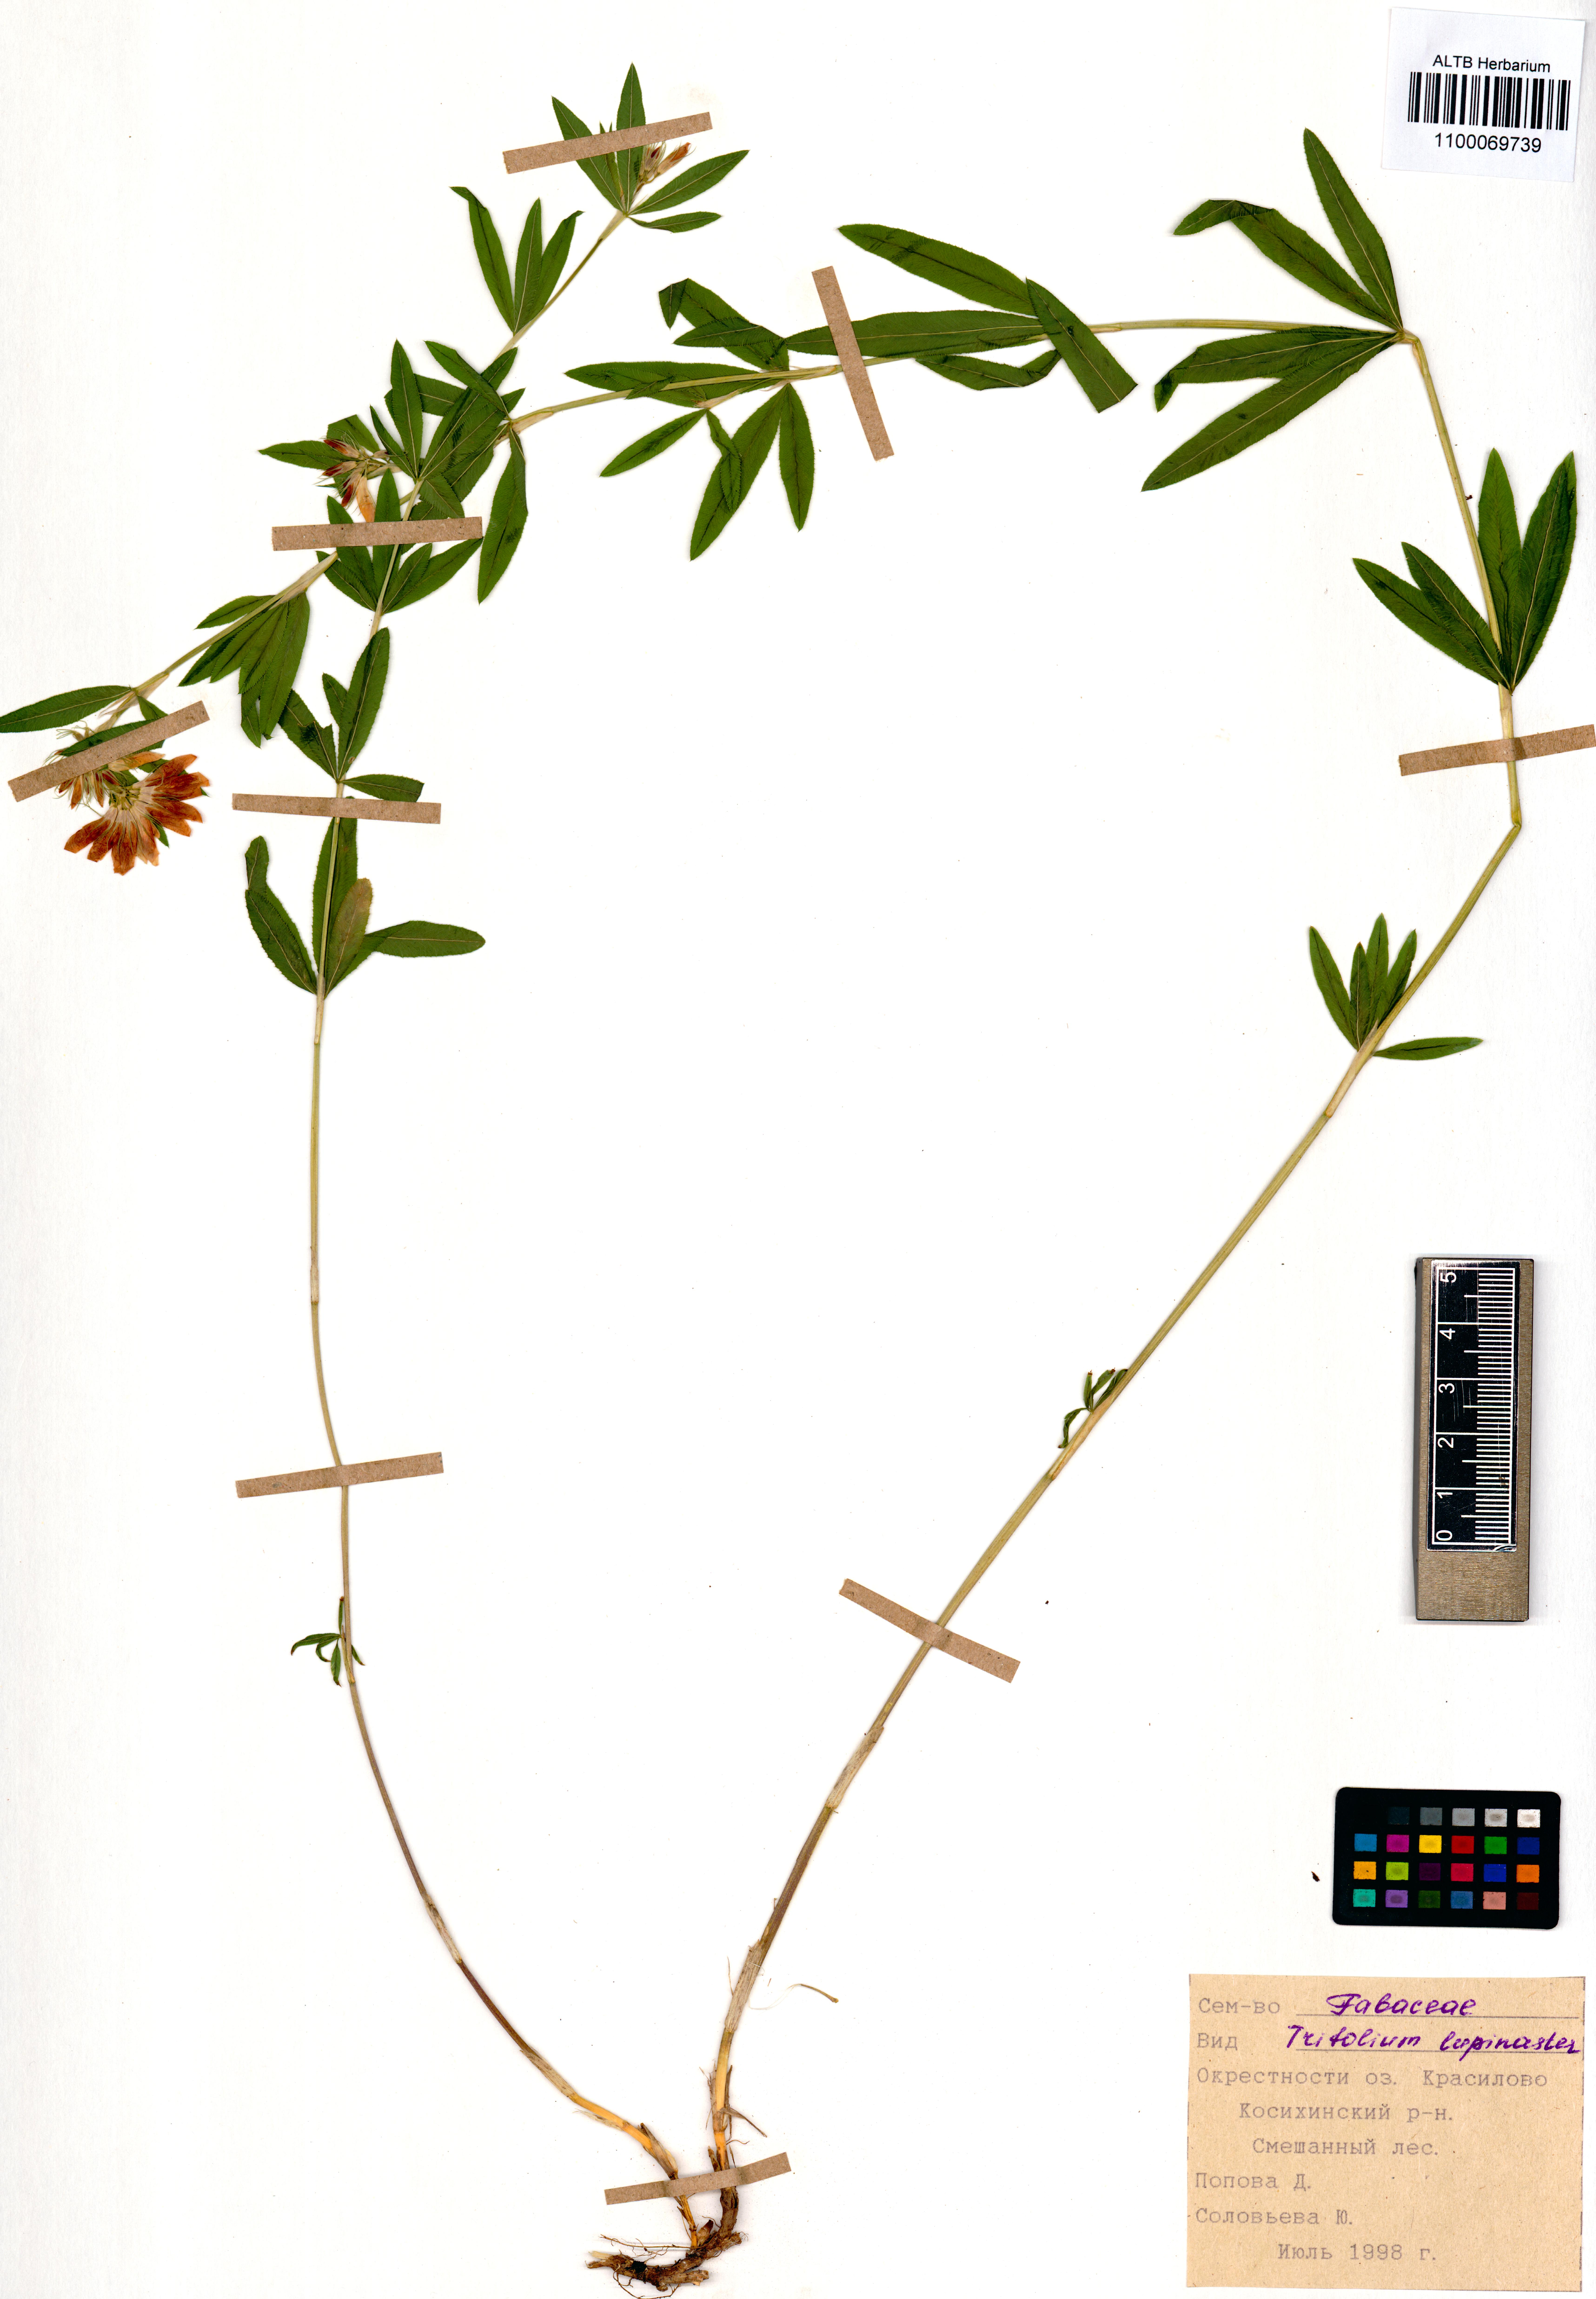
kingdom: Plantae
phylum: Tracheophyta
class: Magnoliopsida
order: Fabales
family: Fabaceae
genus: Trifolium
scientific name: Trifolium lupinaster
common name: Lupine clover
